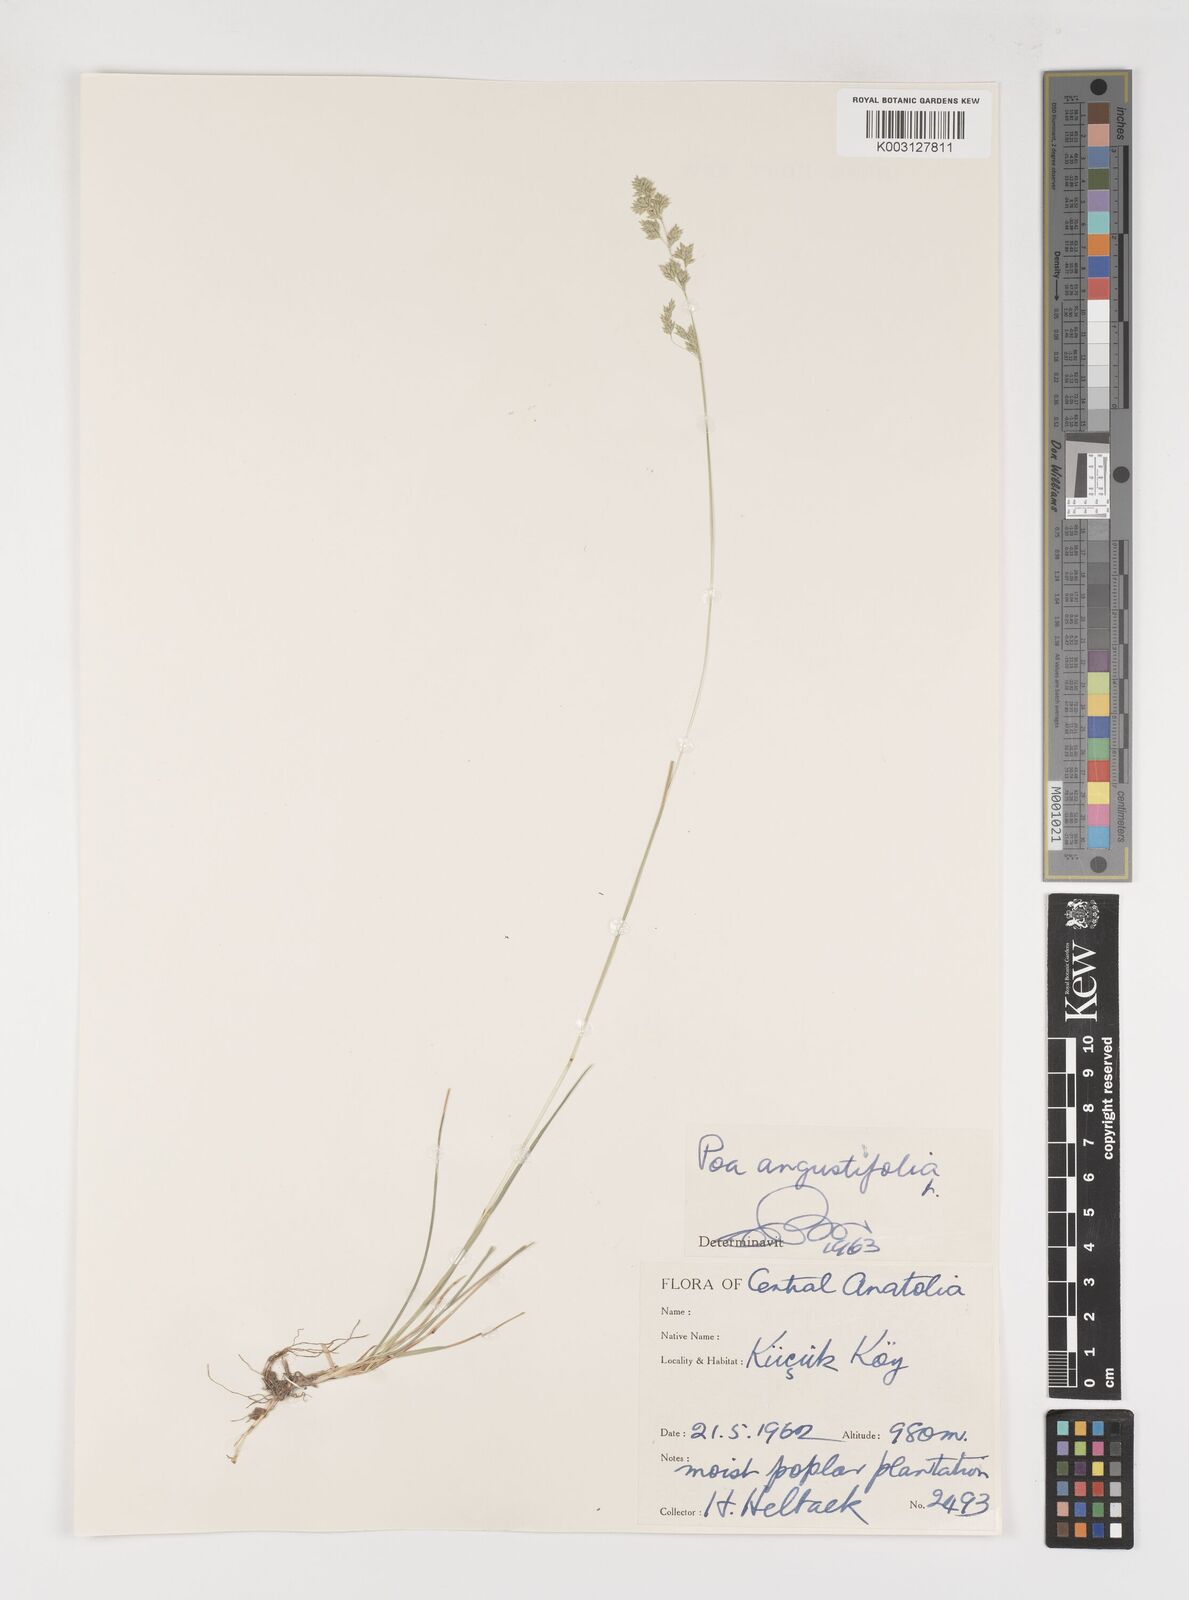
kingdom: Plantae
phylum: Tracheophyta
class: Liliopsida
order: Poales
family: Poaceae
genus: Poa
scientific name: Poa angustifolia
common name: Narrow-leaved meadow-grass
